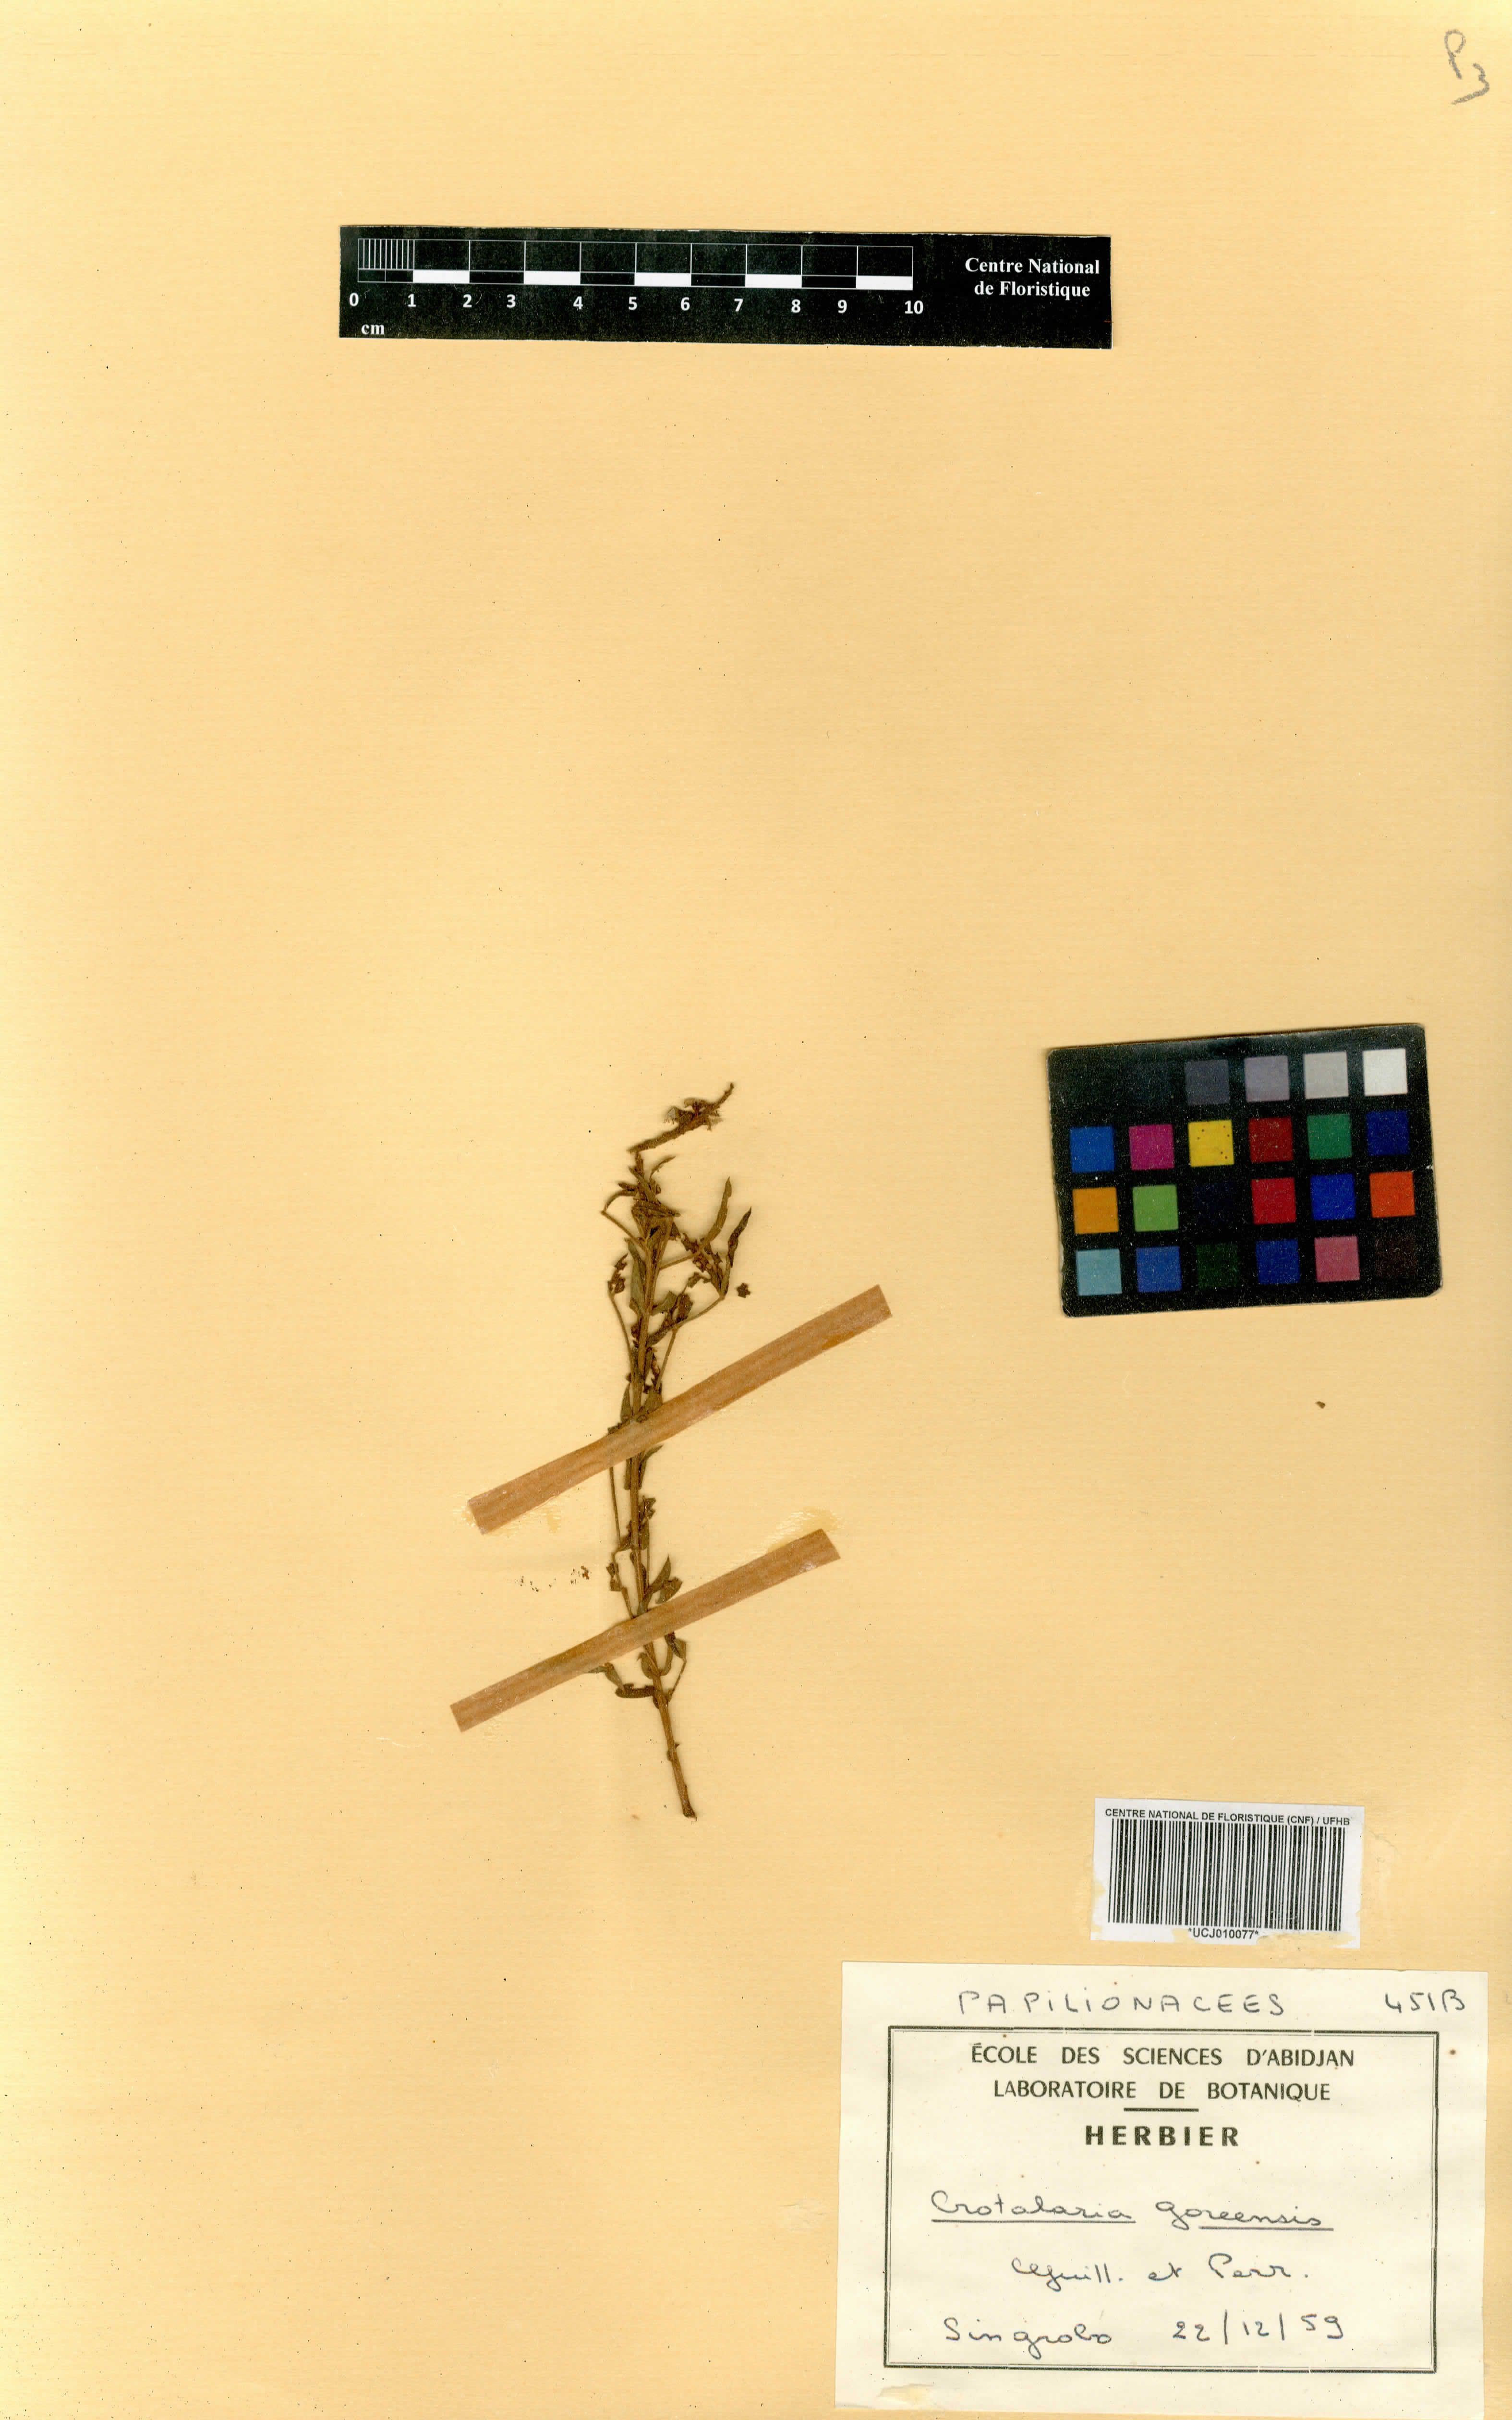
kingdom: Plantae
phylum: Tracheophyta
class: Magnoliopsida
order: Fabales
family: Fabaceae
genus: Crotalaria
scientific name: Crotalaria goreensis
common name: Gambia-pea
